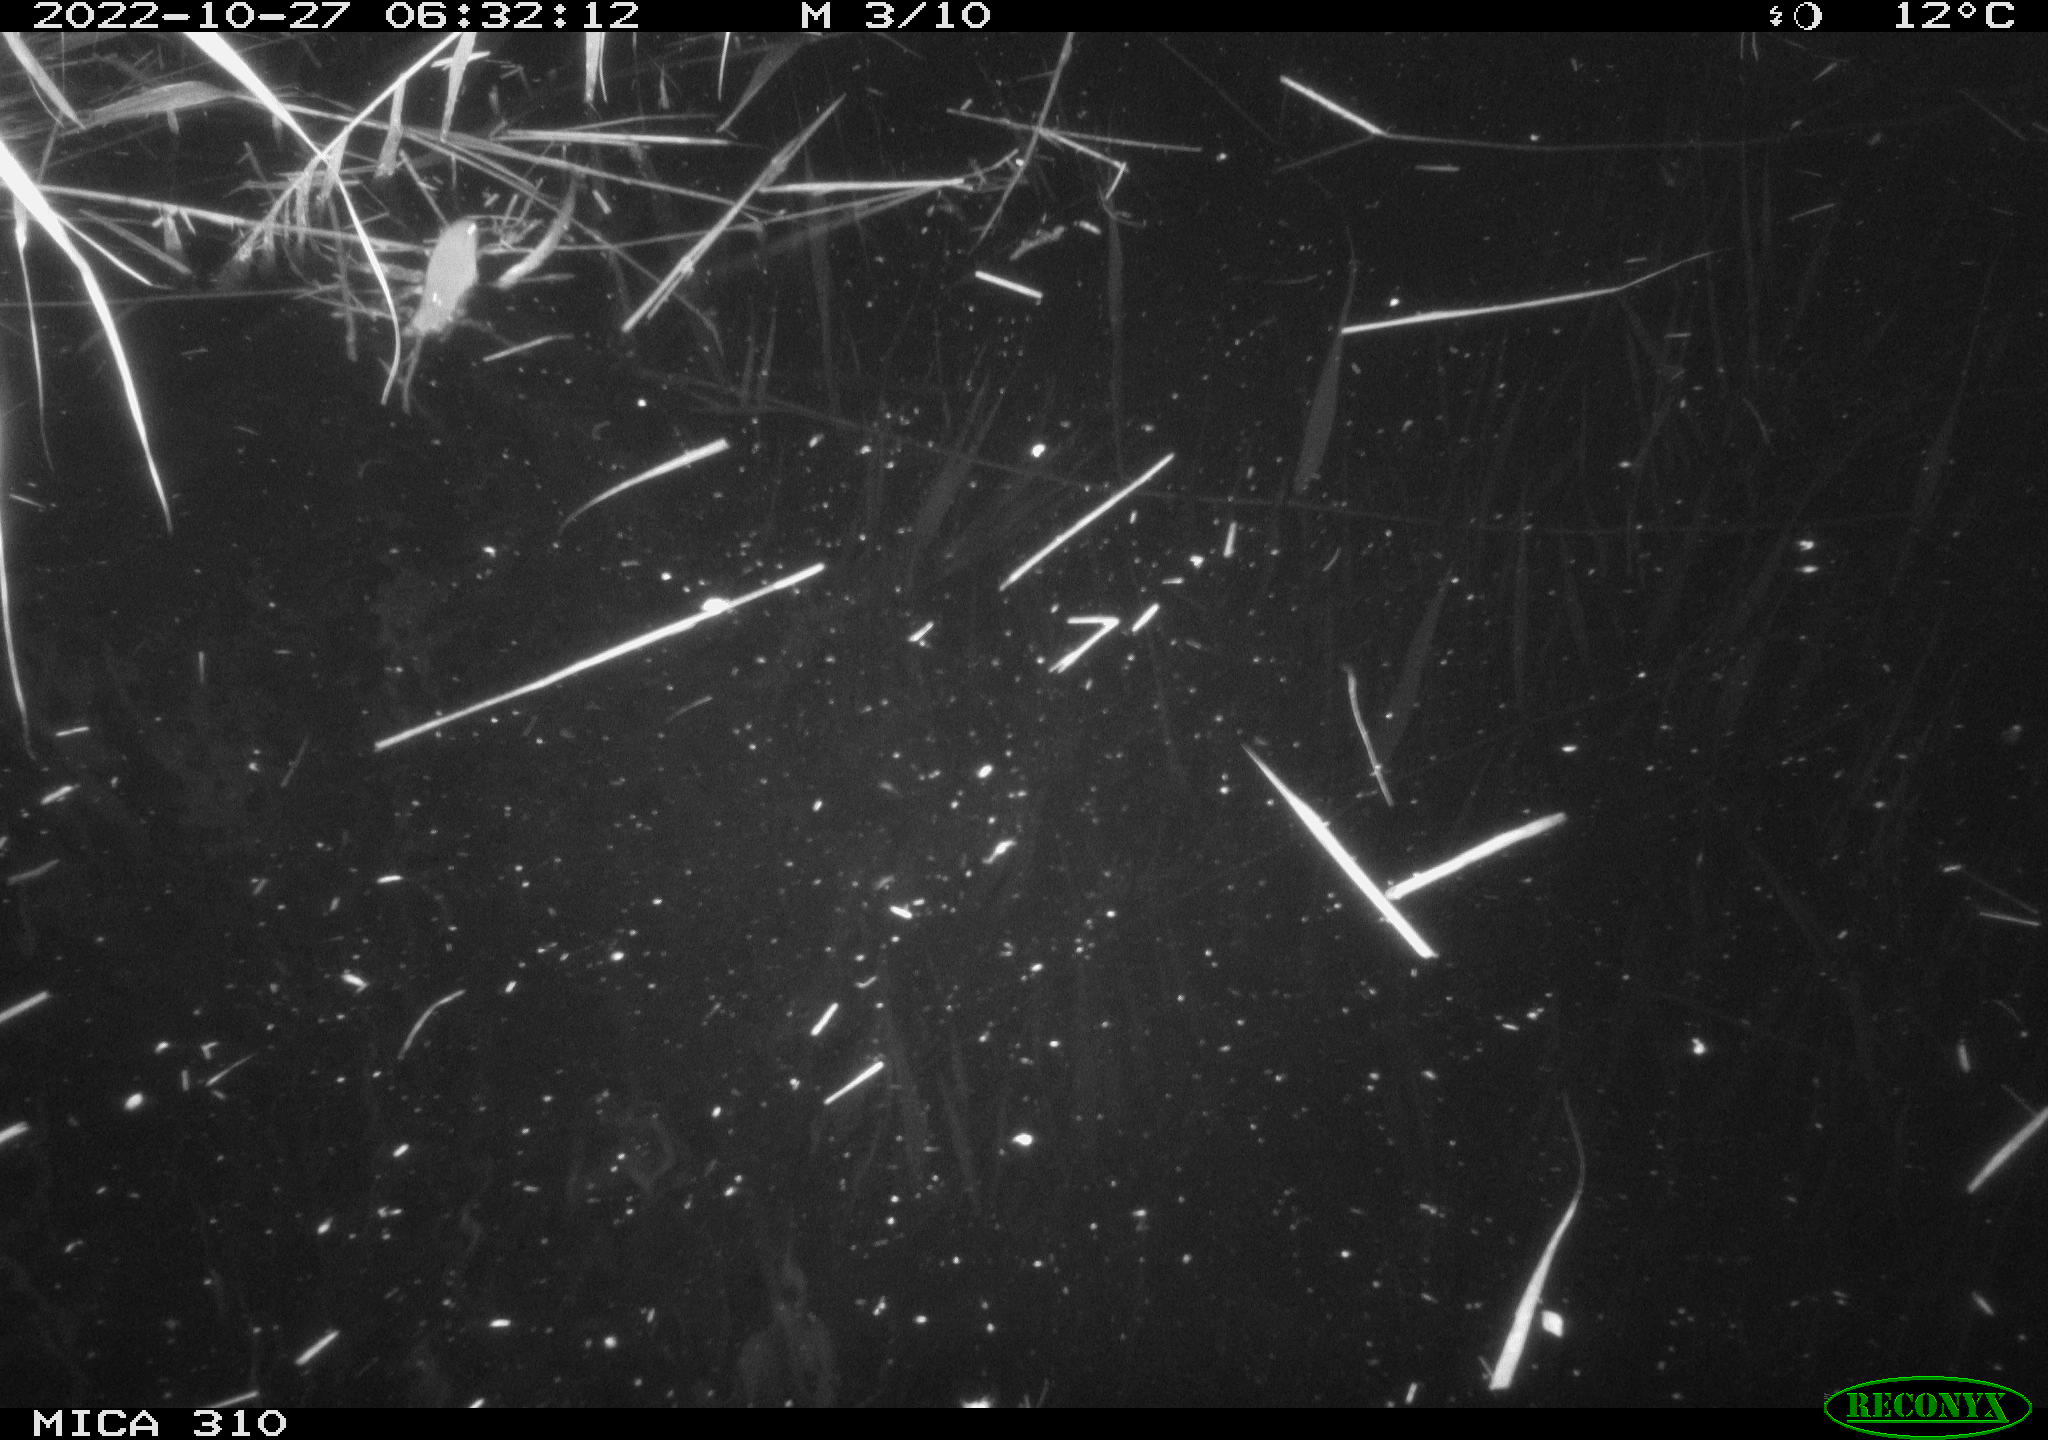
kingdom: Animalia
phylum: Chordata
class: Mammalia
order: Rodentia
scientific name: Rodentia
